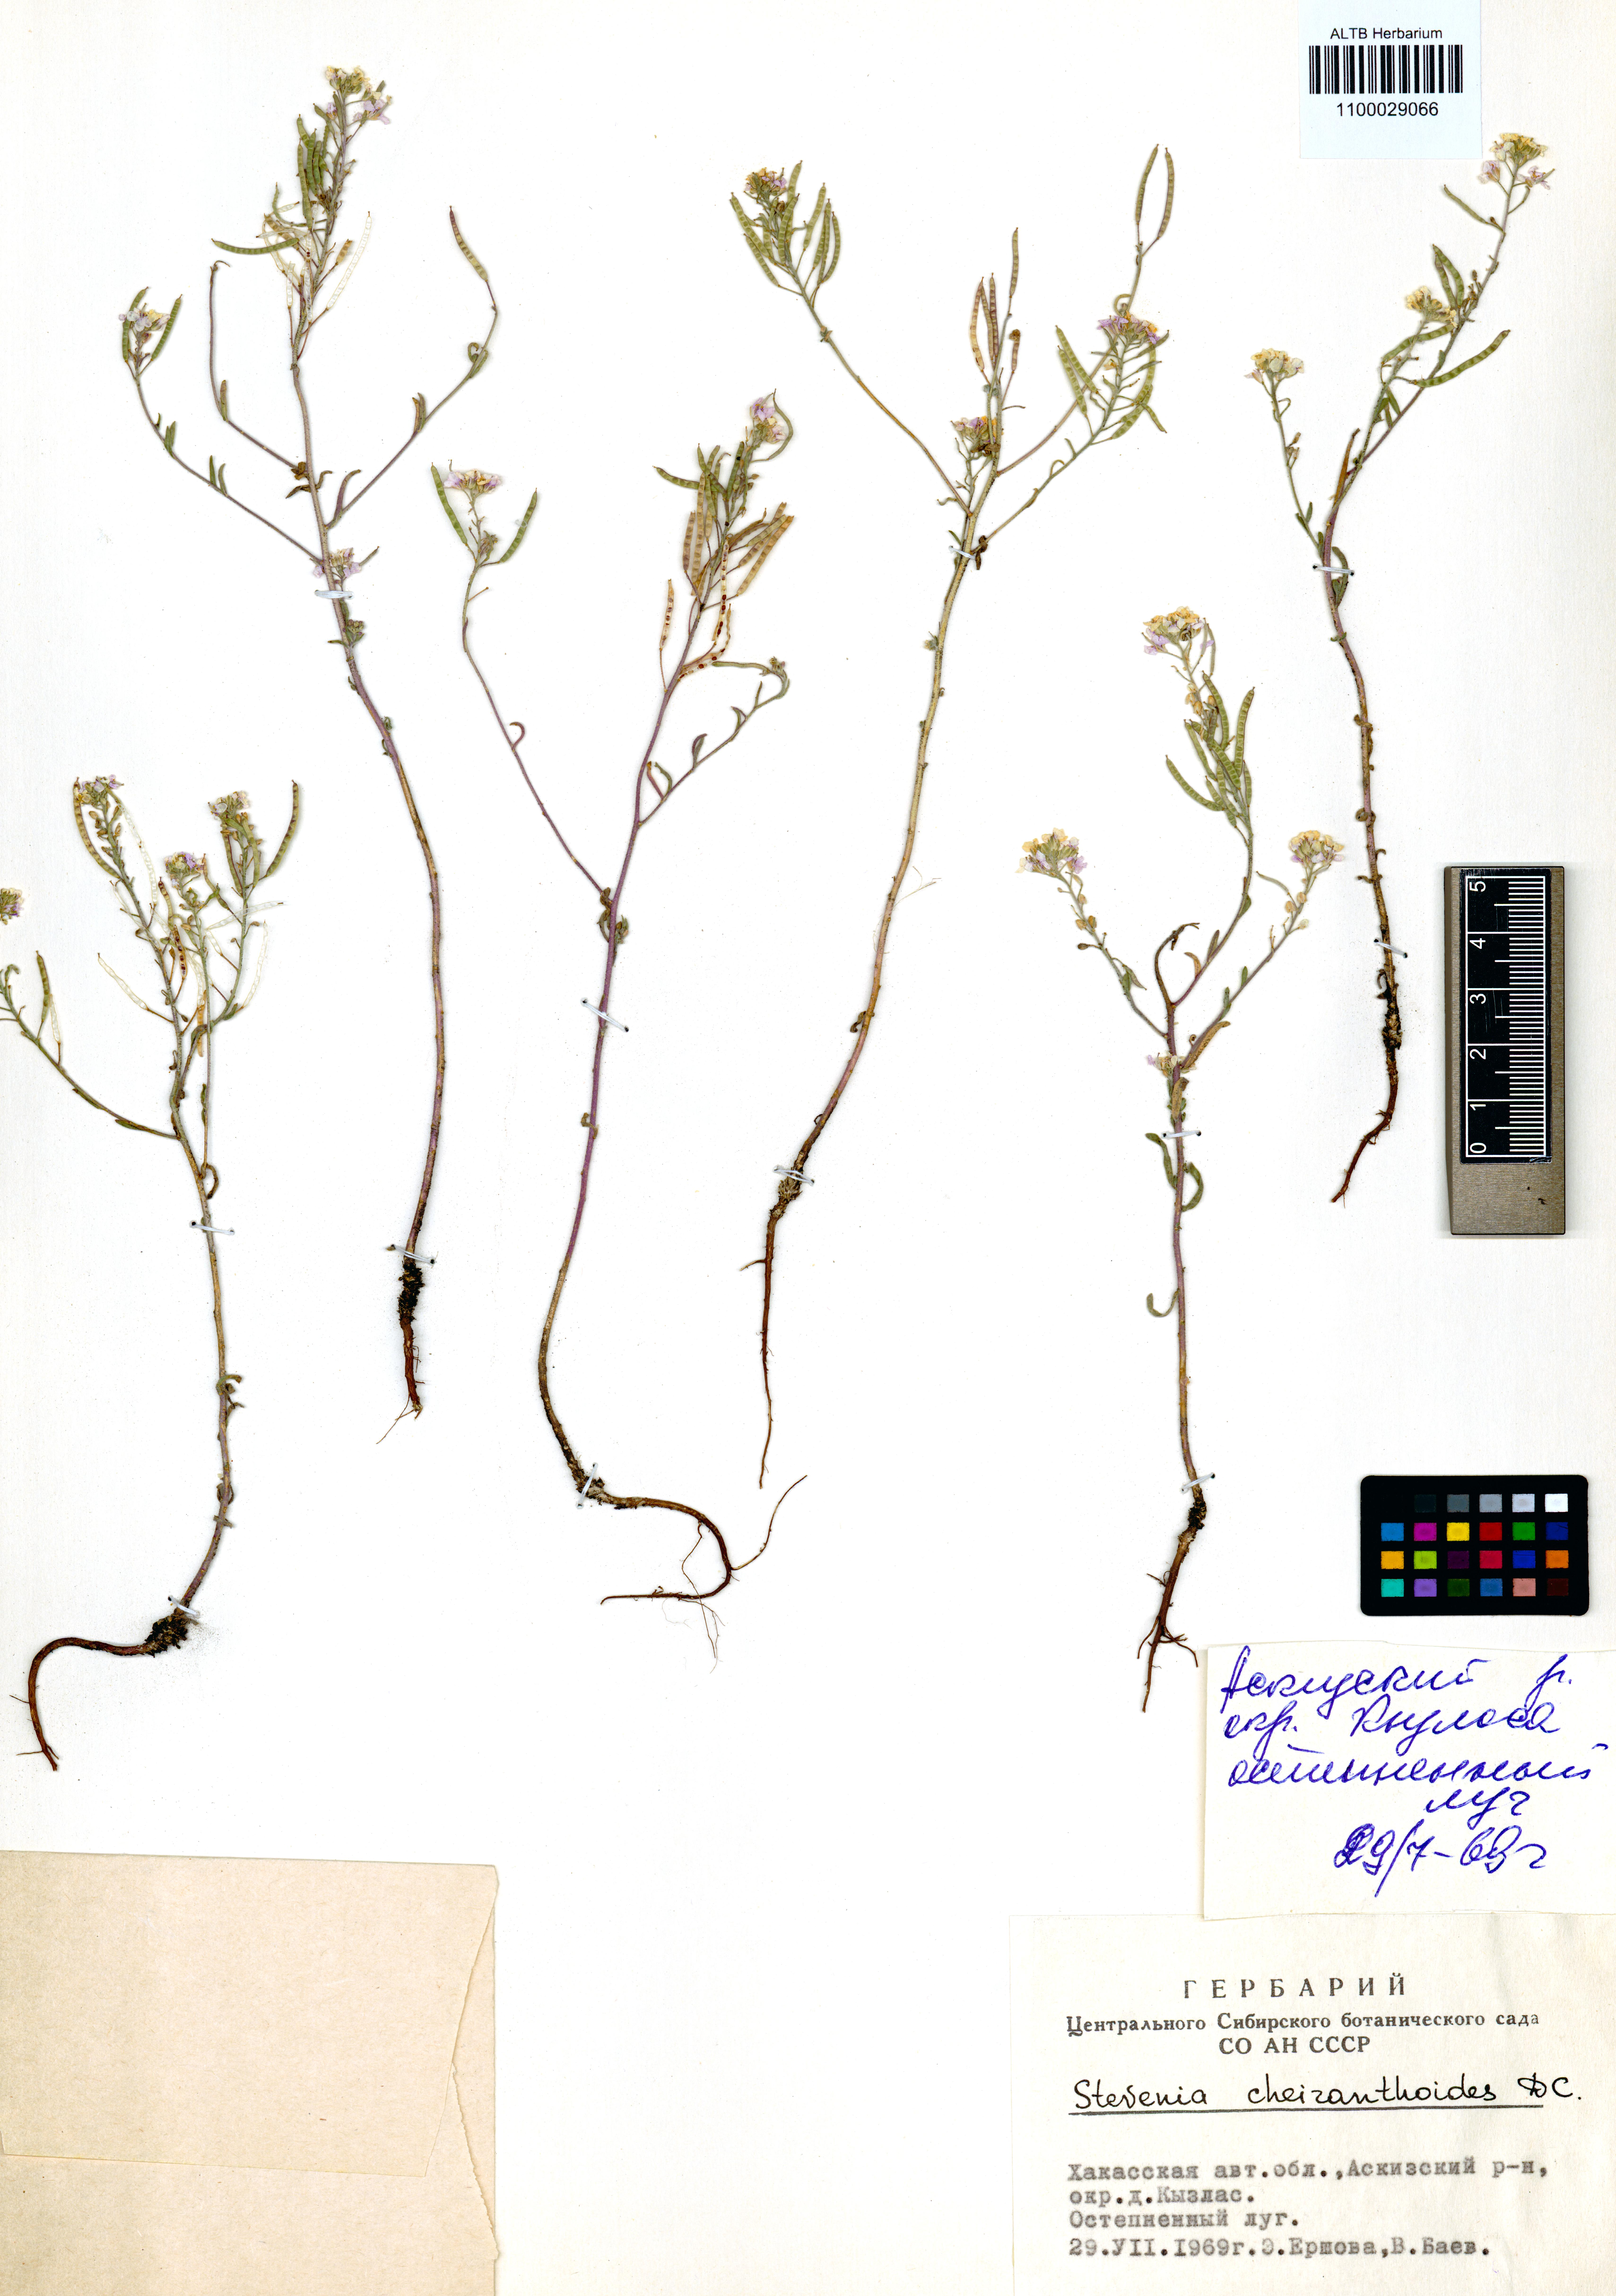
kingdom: Plantae
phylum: Tracheophyta
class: Magnoliopsida
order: Brassicales
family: Brassicaceae
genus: Stevenia
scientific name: Stevenia incarnata
